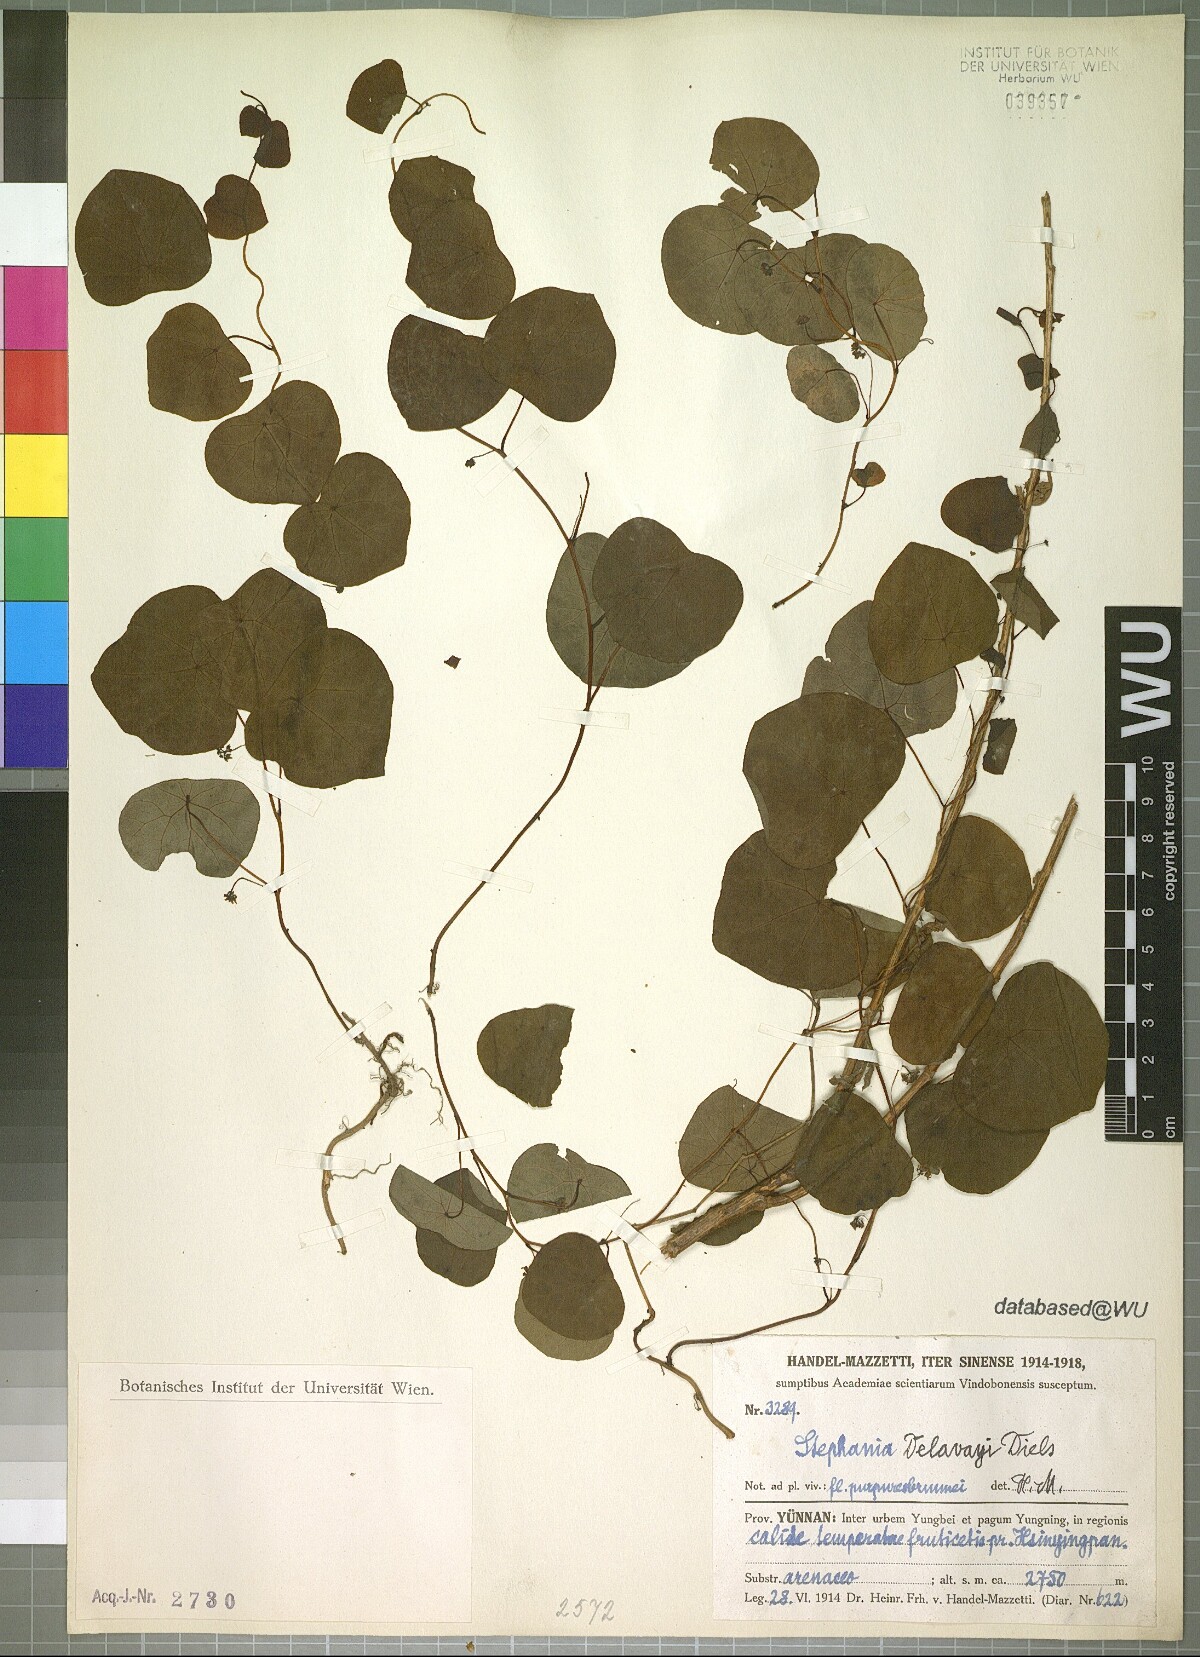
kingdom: Plantae
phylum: Tracheophyta
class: Magnoliopsida
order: Ranunculales
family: Menispermaceae
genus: Stephania
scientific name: Stephania delavayi
